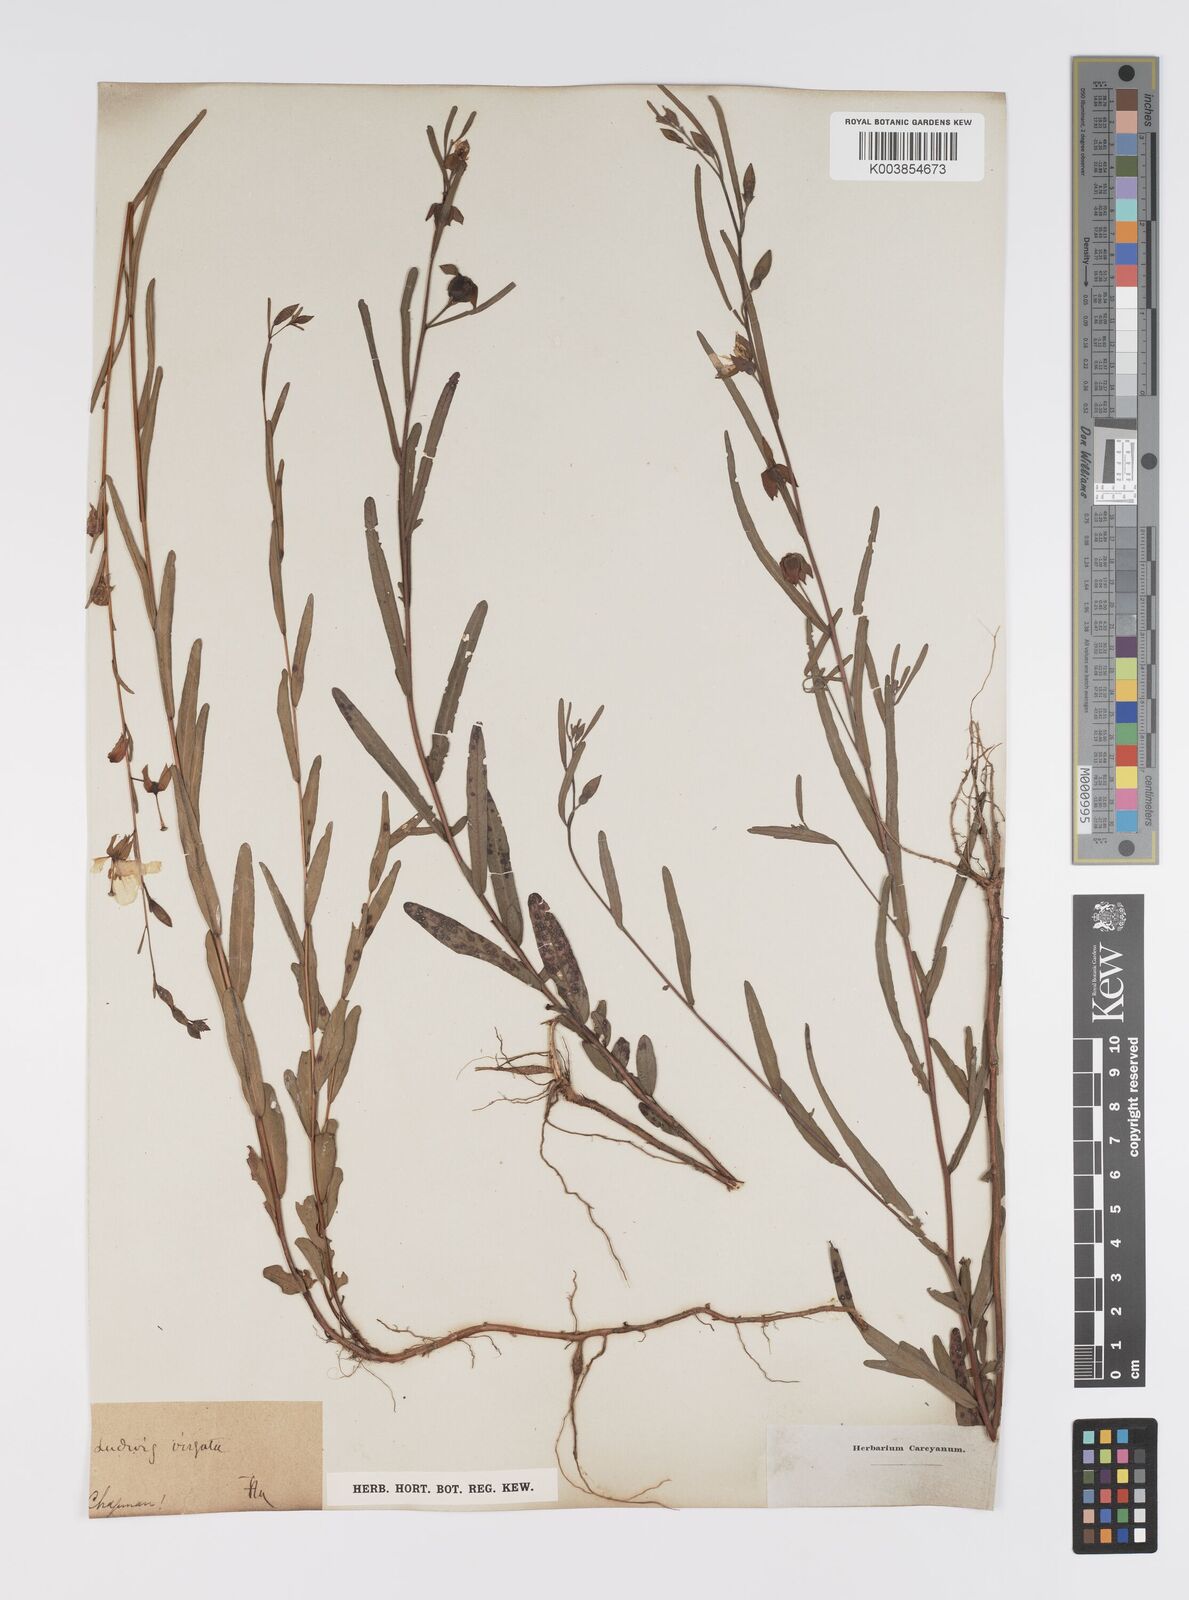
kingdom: Plantae
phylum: Tracheophyta
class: Magnoliopsida
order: Myrtales
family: Onagraceae
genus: Ludwigia
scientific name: Ludwigia virgata
